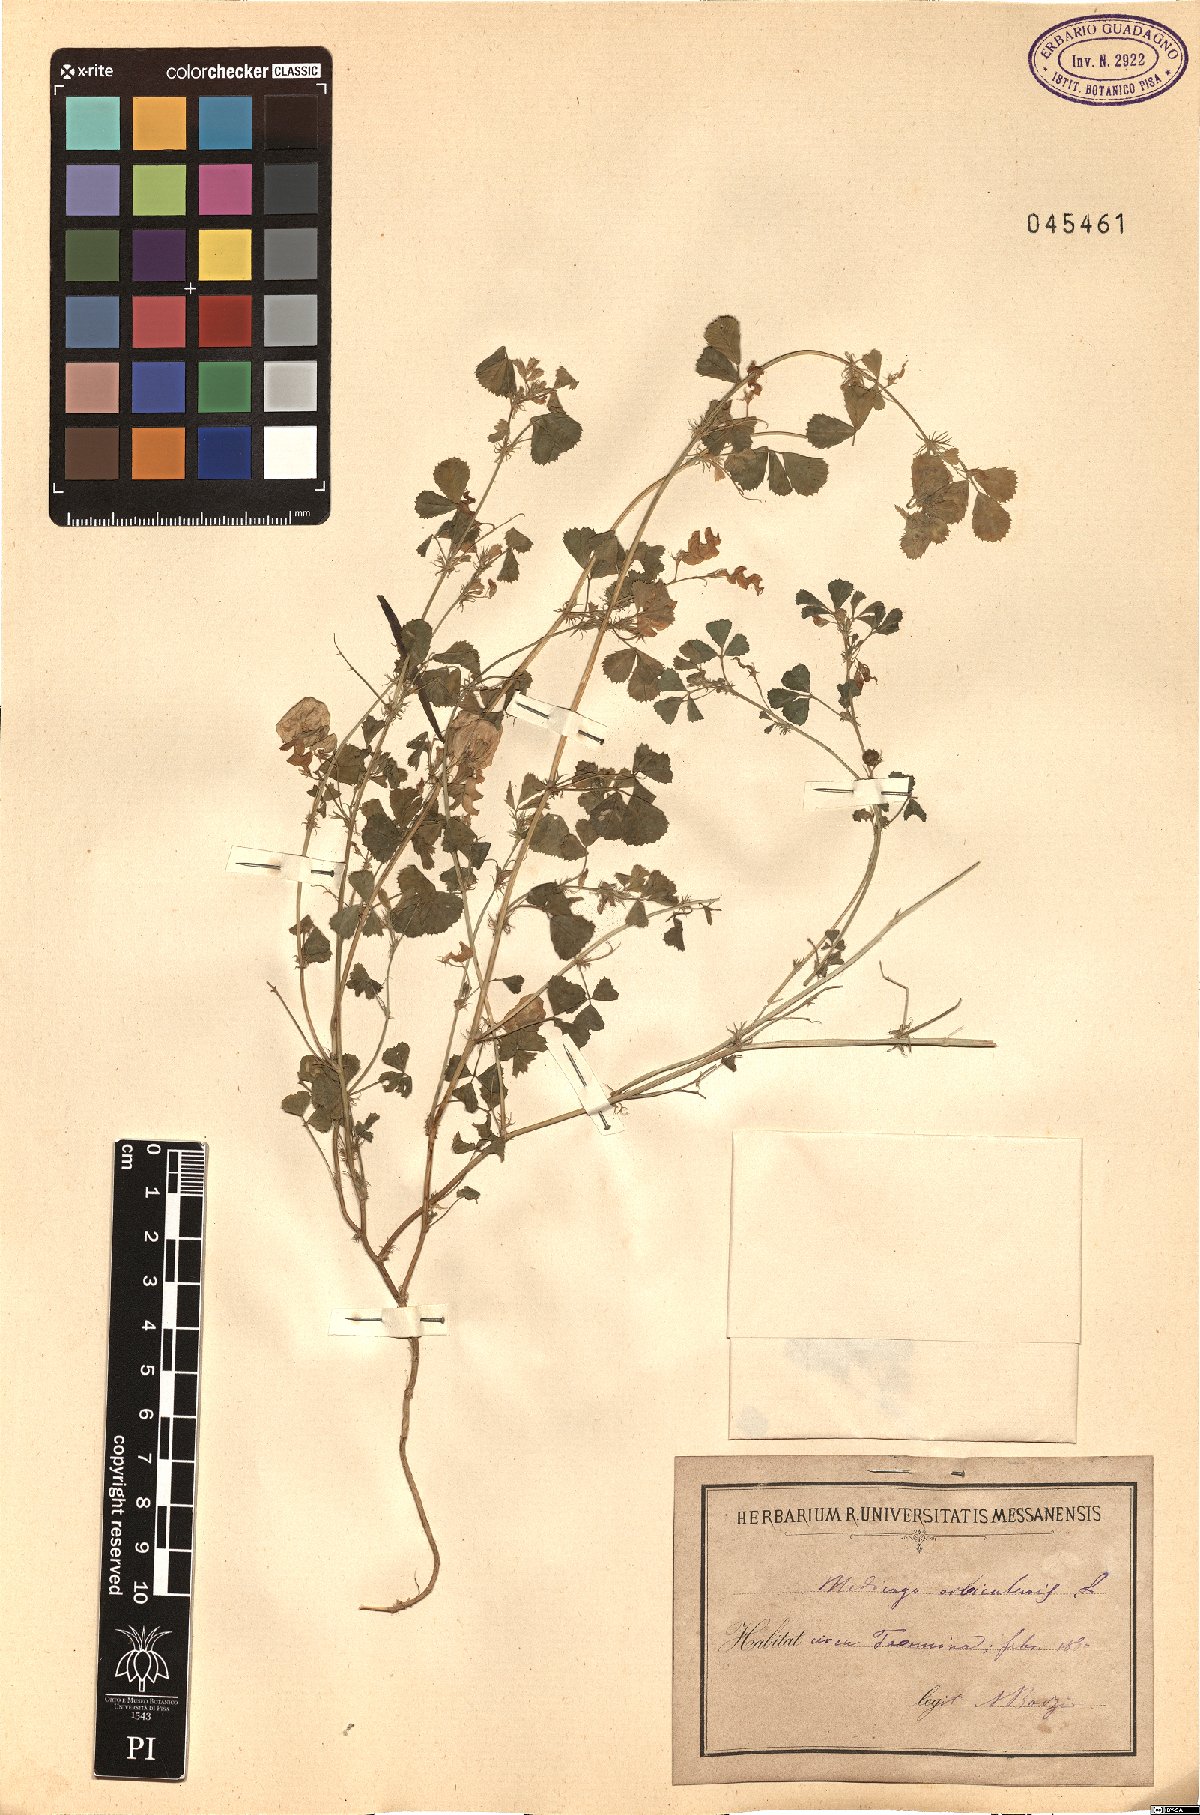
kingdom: Plantae
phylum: Tracheophyta
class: Magnoliopsida
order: Fabales
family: Fabaceae
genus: Medicago
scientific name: Medicago orbicularis
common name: Button medick
